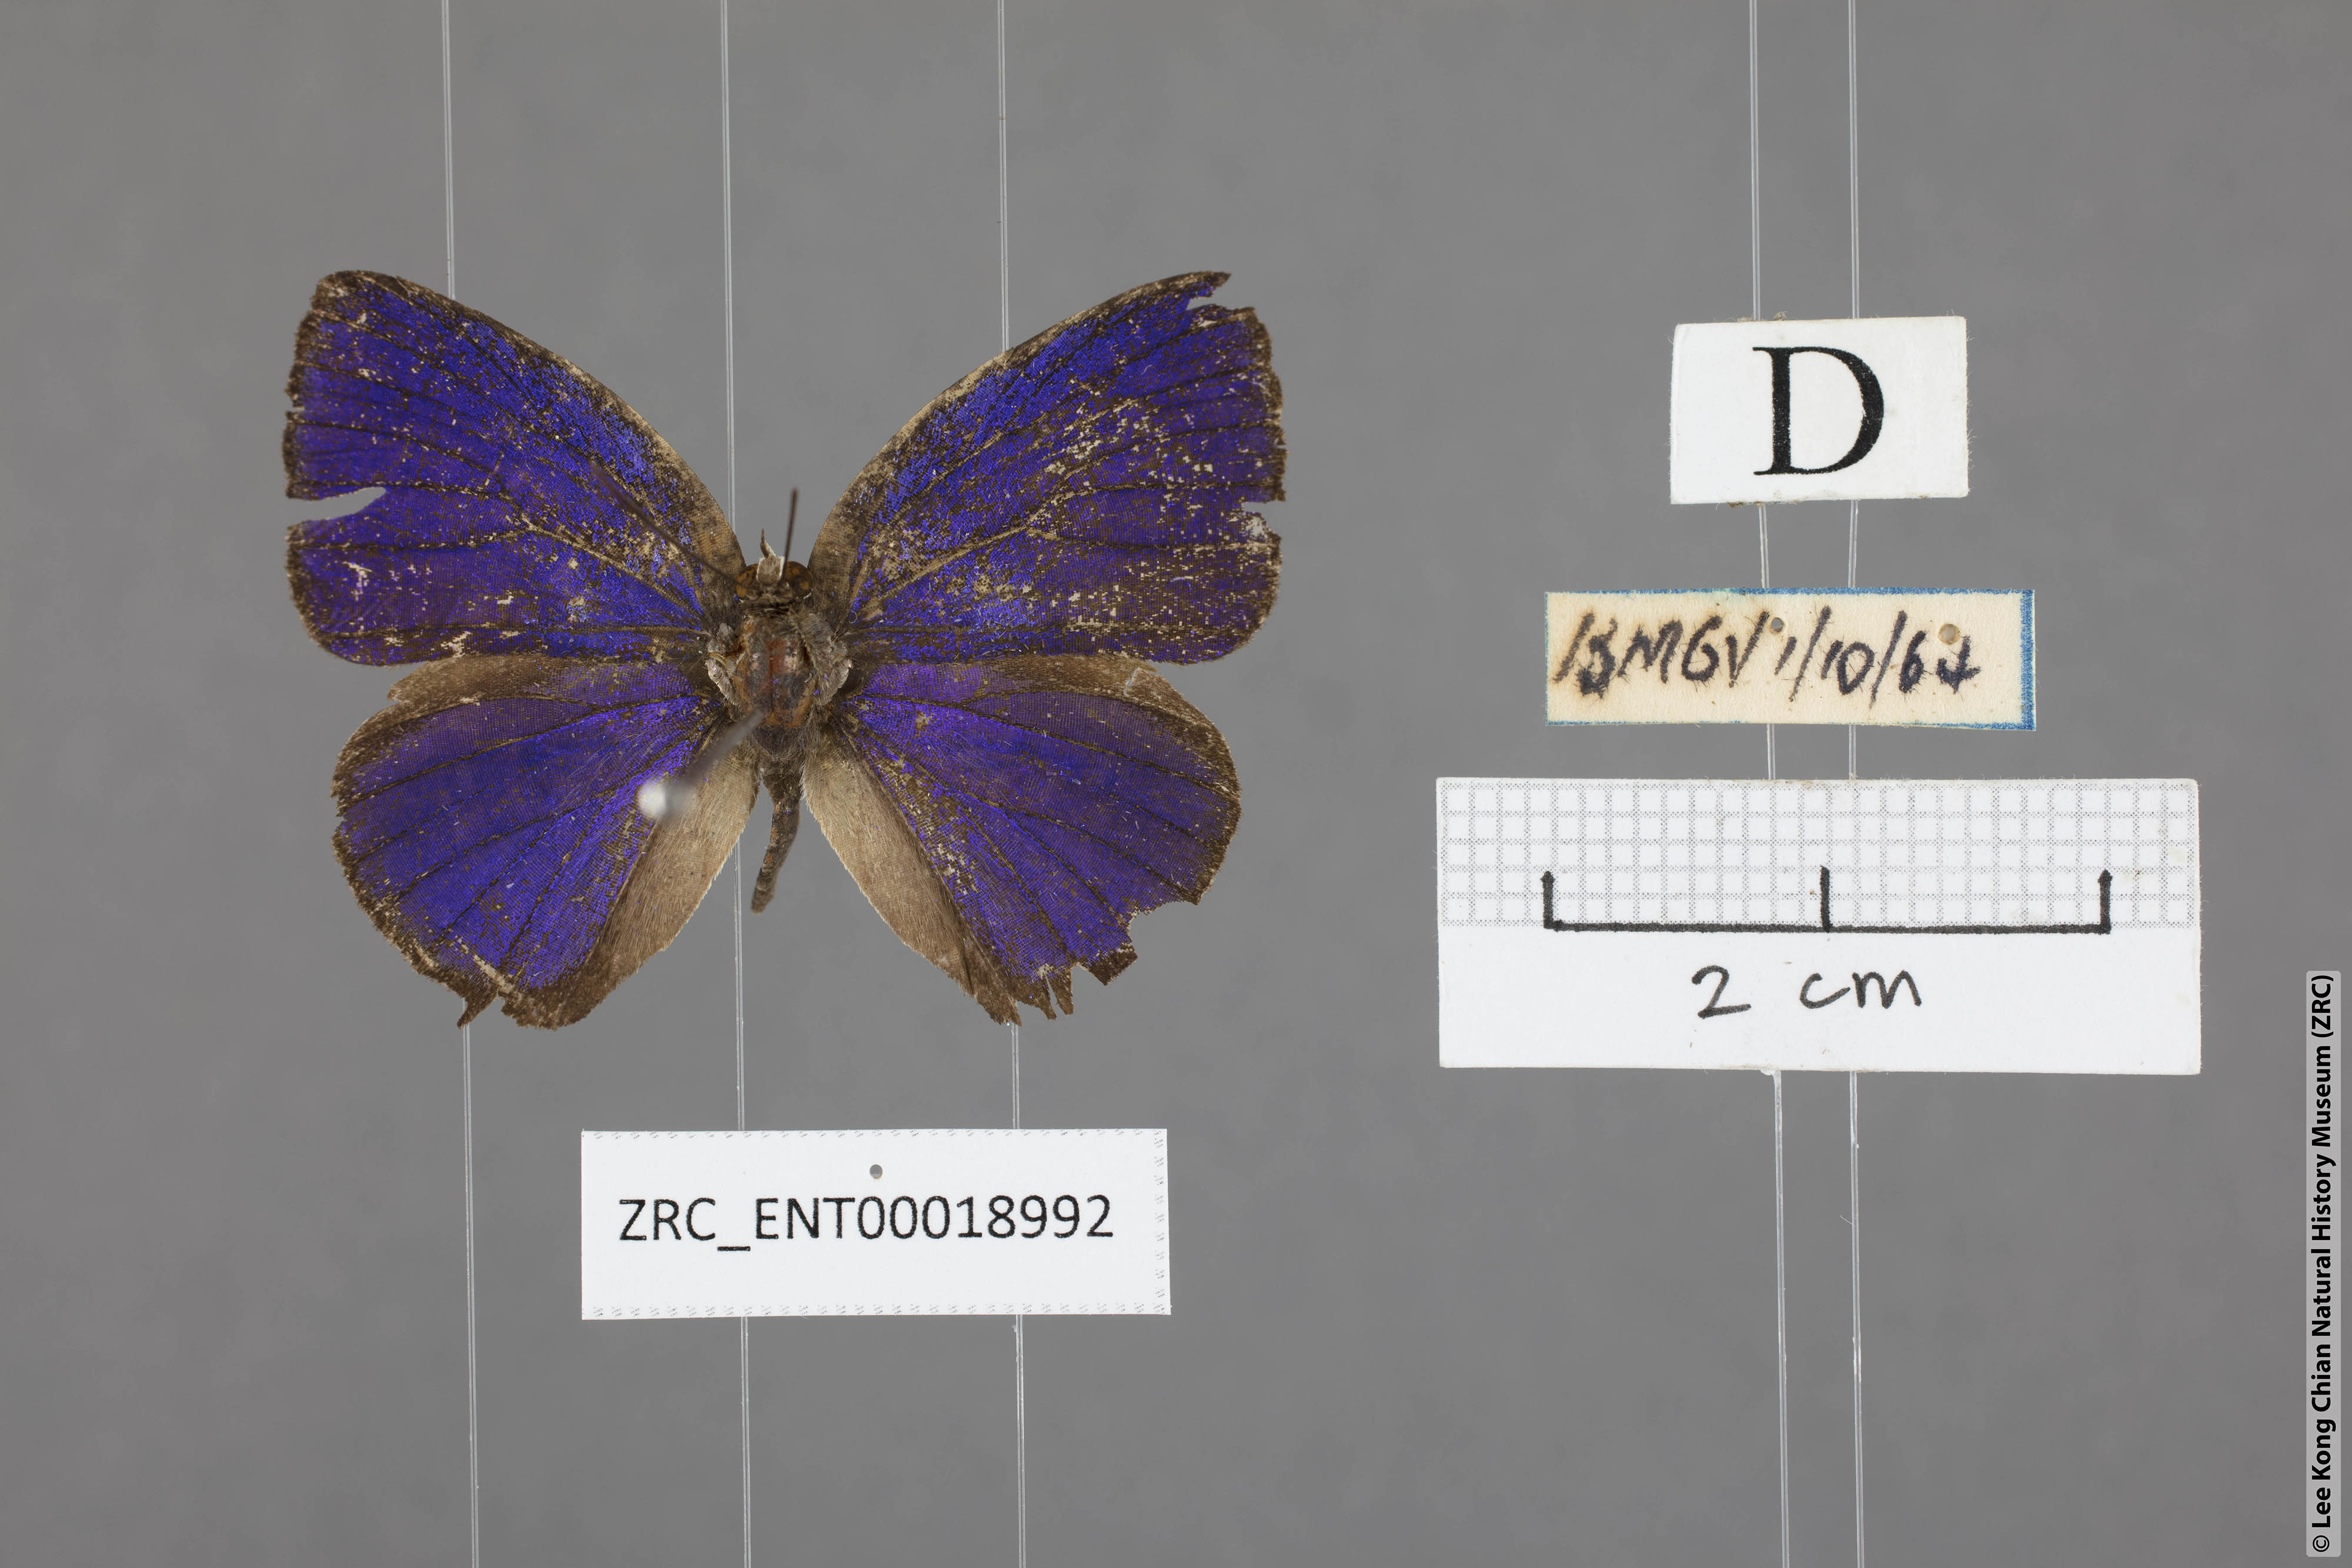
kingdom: Animalia
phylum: Arthropoda
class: Insecta
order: Lepidoptera
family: Lycaenidae
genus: Arhopala
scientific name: Arhopala achelous
